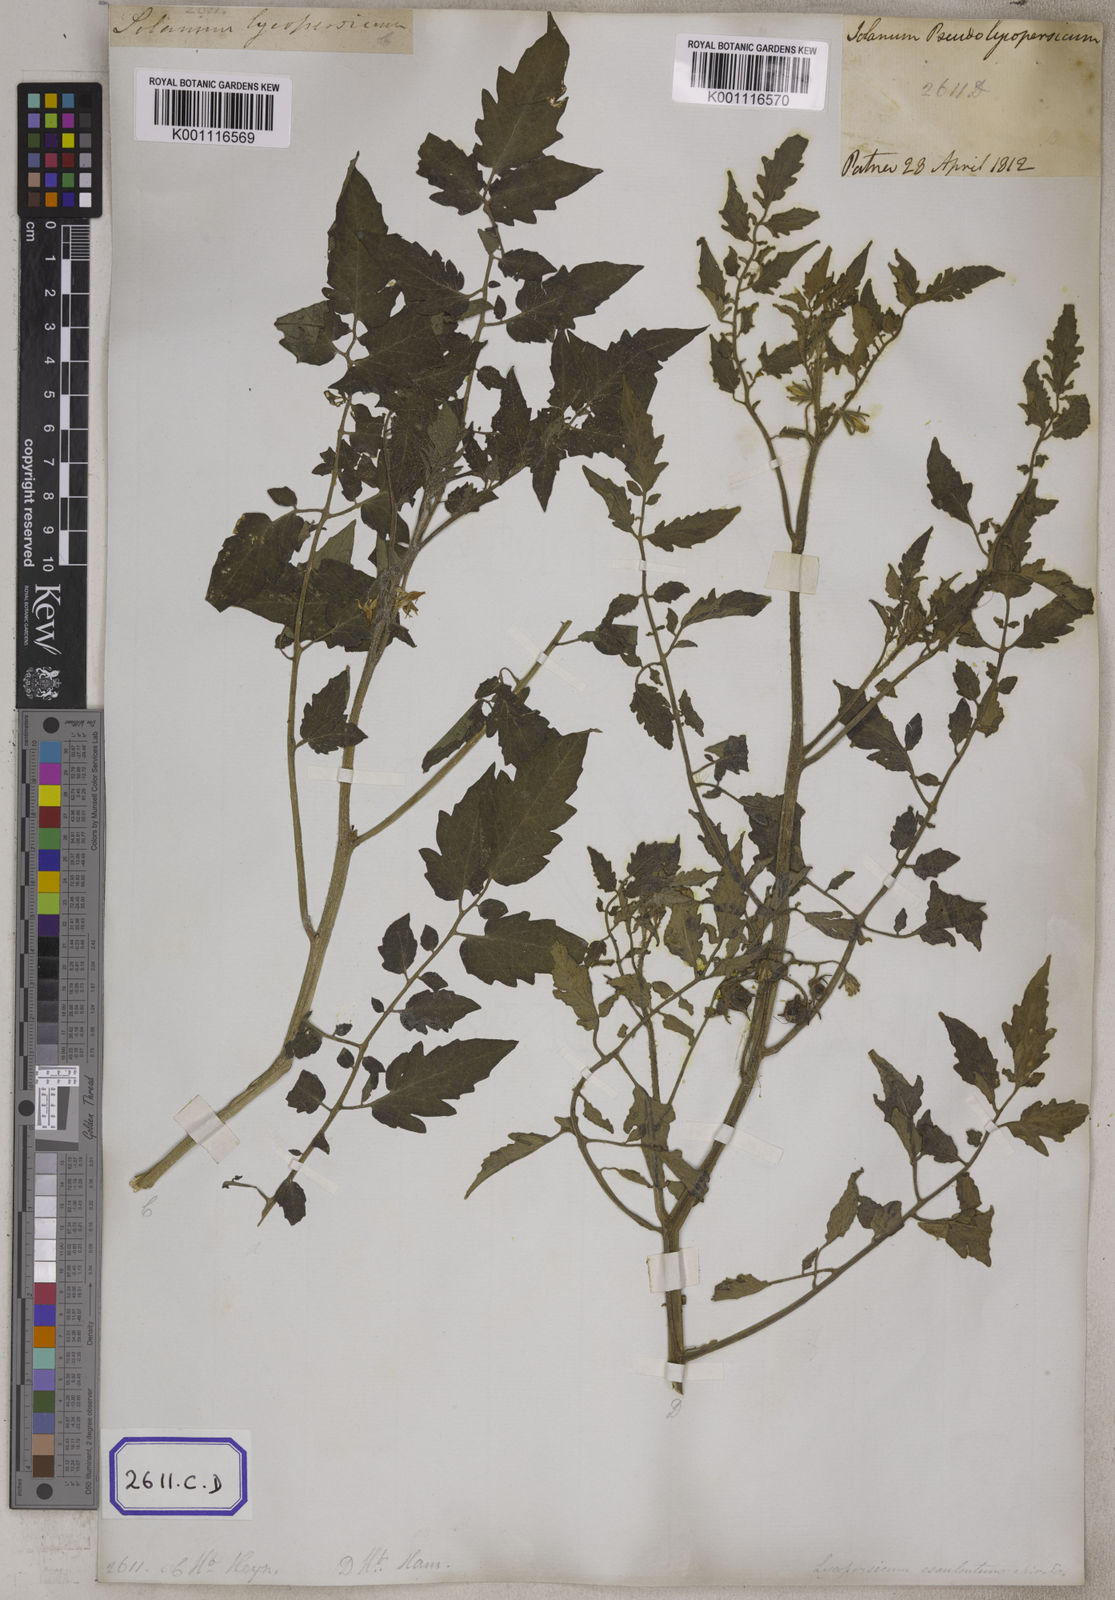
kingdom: Plantae
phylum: Tracheophyta
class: Magnoliopsida
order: Solanales
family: Solanaceae
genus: Solanum
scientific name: Solanum lycopersicum
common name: Garden tomato
